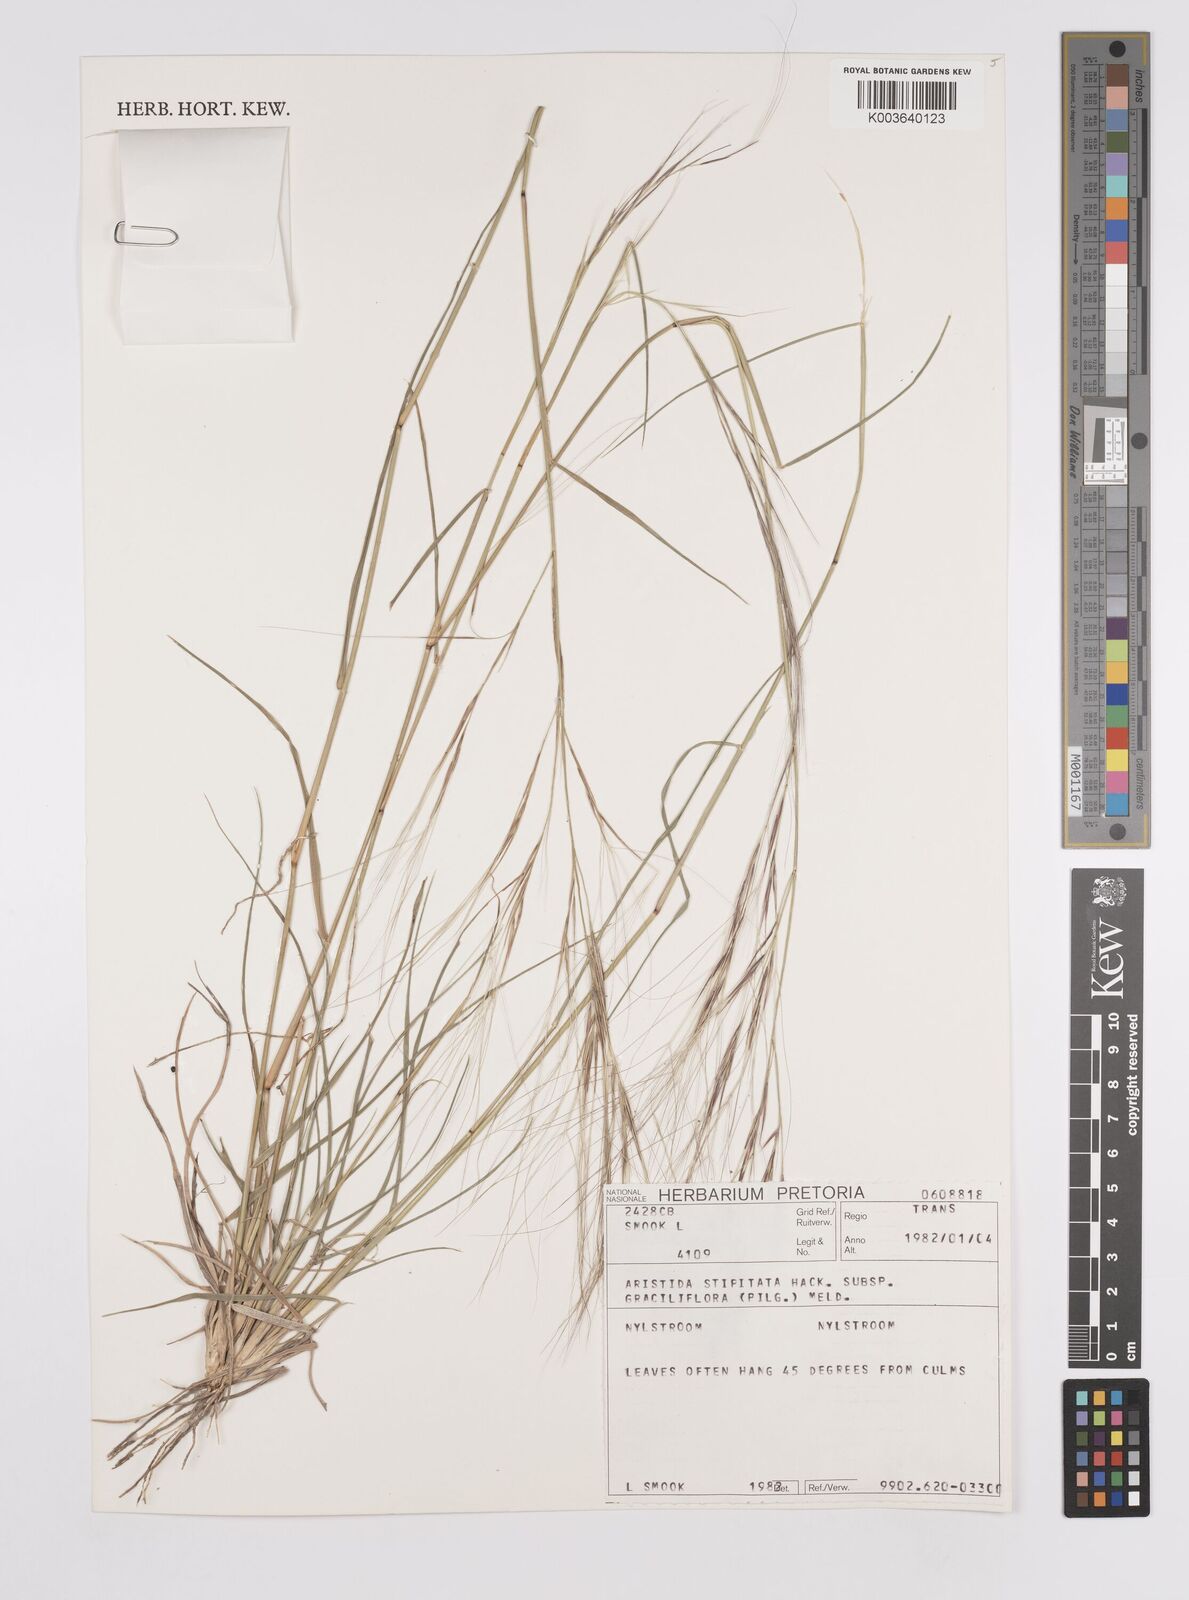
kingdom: Plantae
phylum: Tracheophyta
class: Liliopsida
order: Poales
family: Poaceae
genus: Aristida
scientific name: Aristida stipitata
